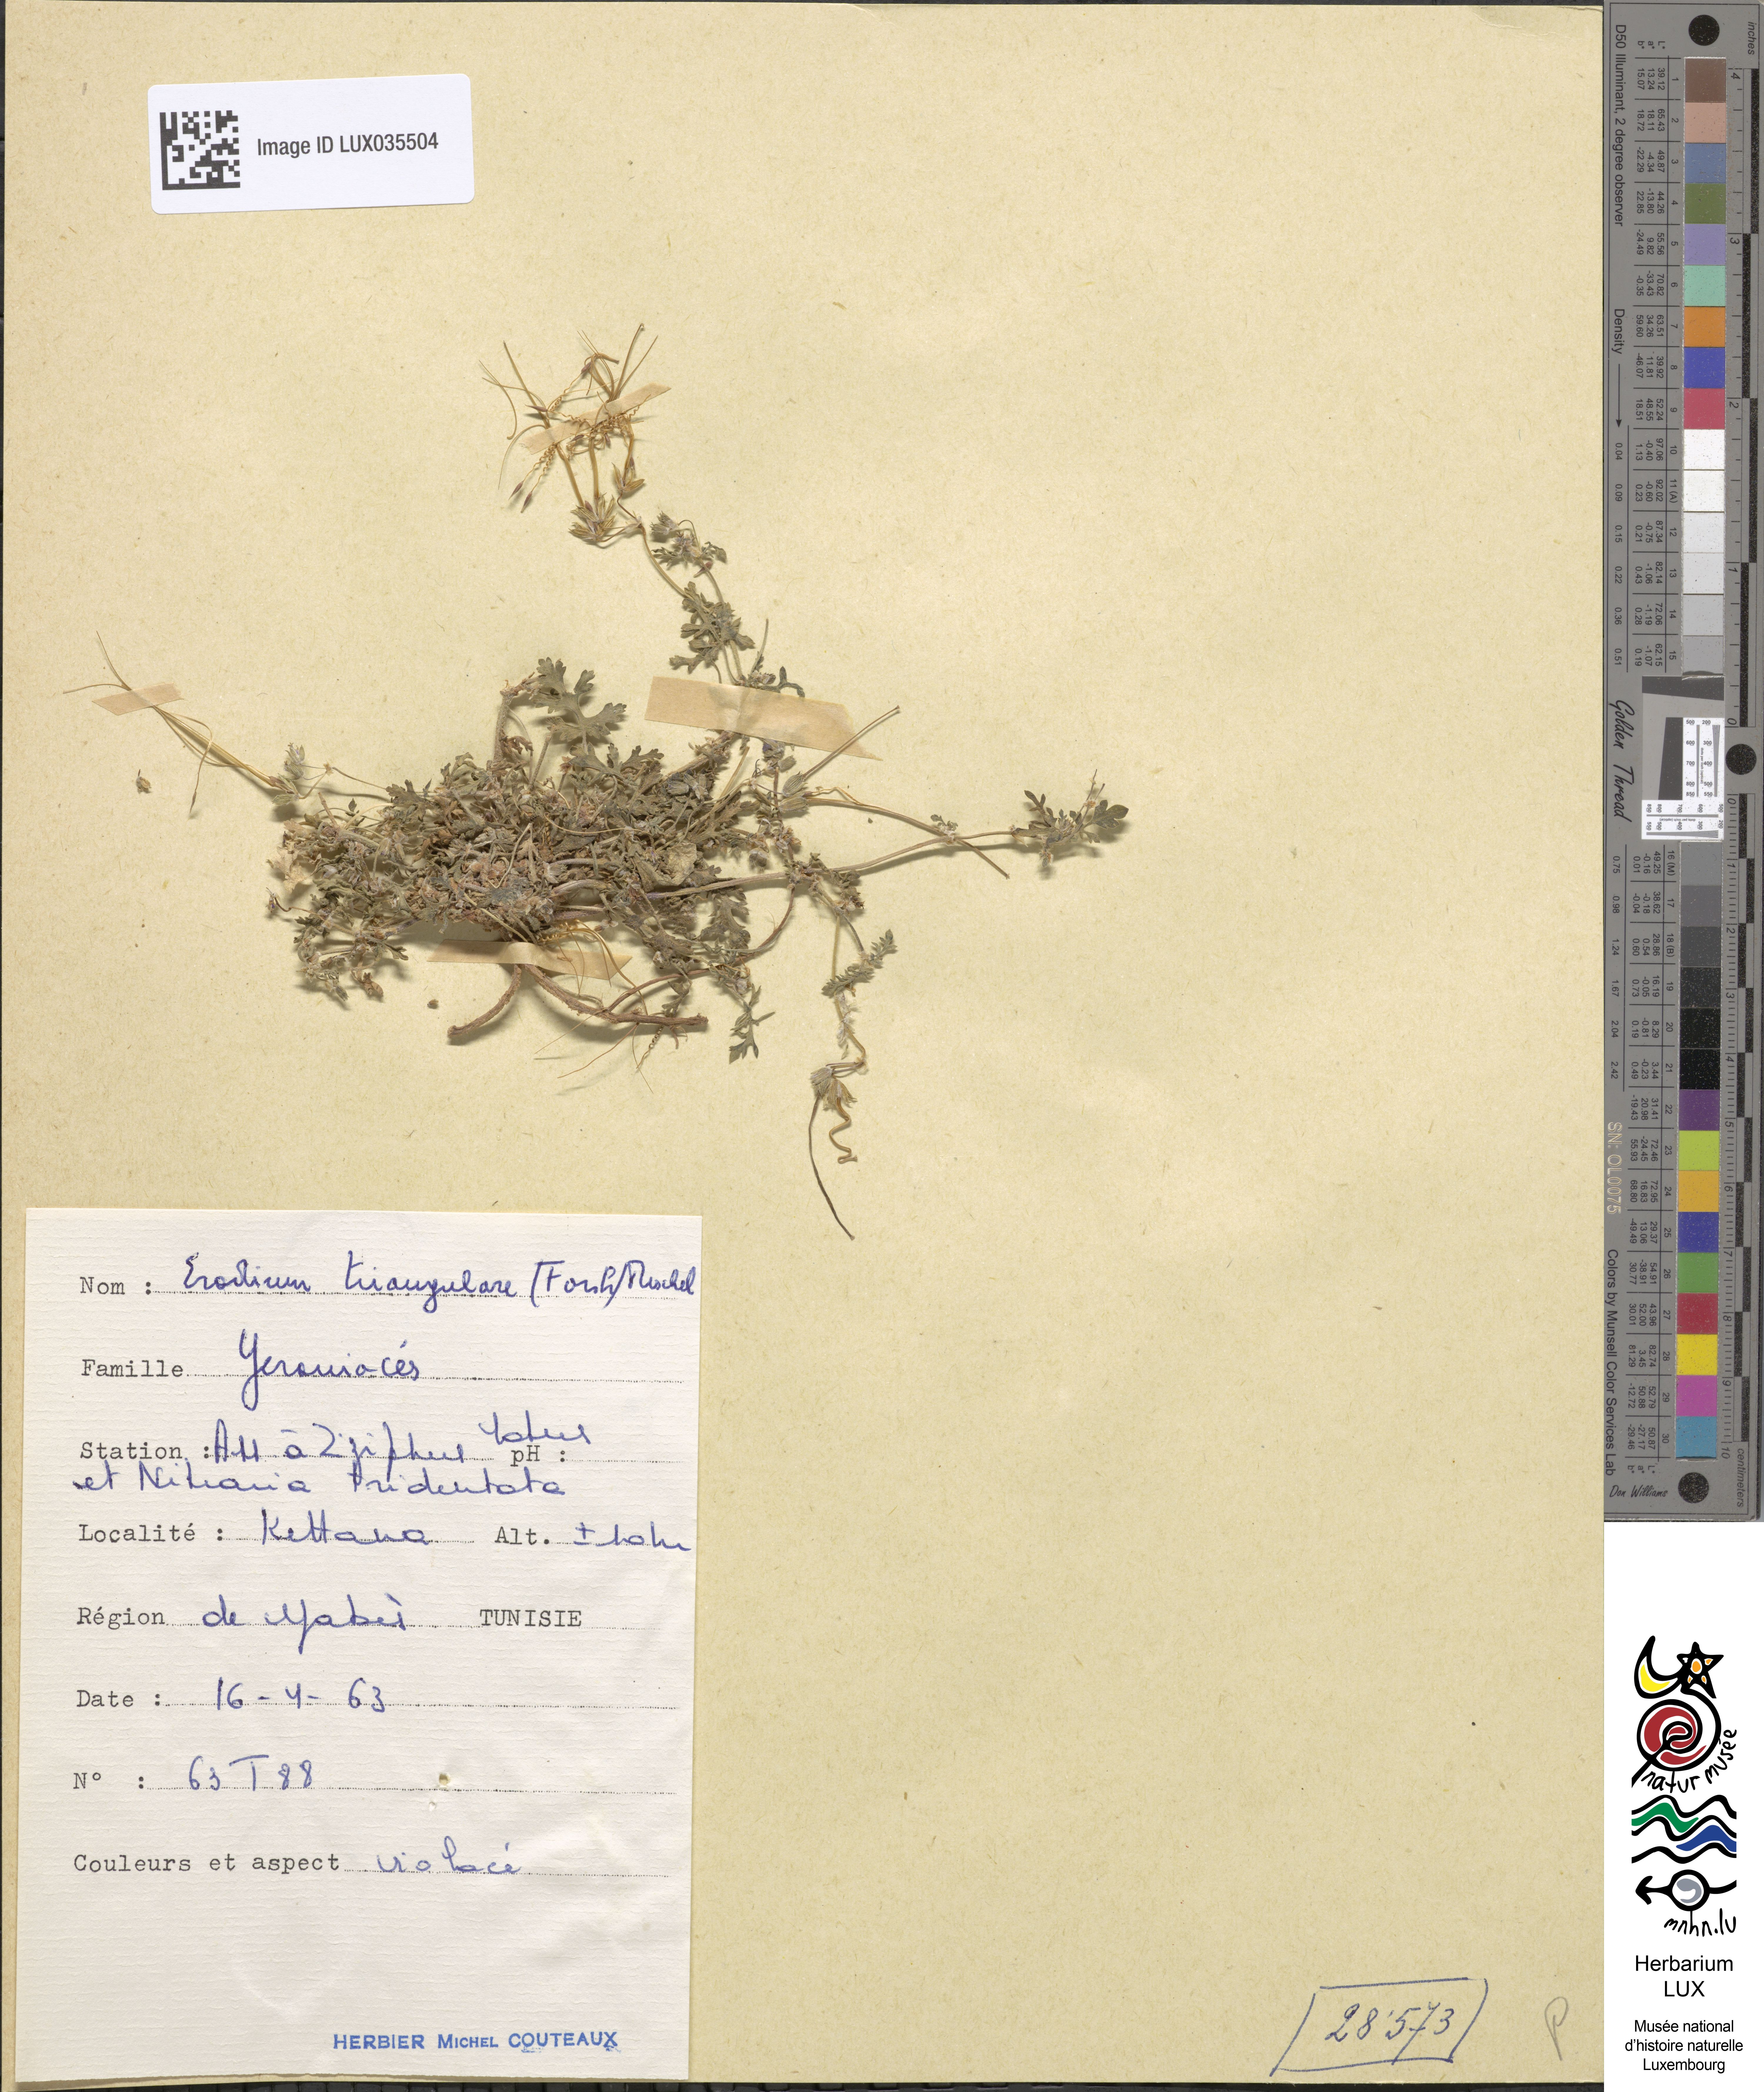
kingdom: Plantae
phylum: Tracheophyta
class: Magnoliopsida
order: Geraniales
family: Geraniaceae
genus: Erodium
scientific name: Erodium laciniatum
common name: Cutleaf stork's bill
